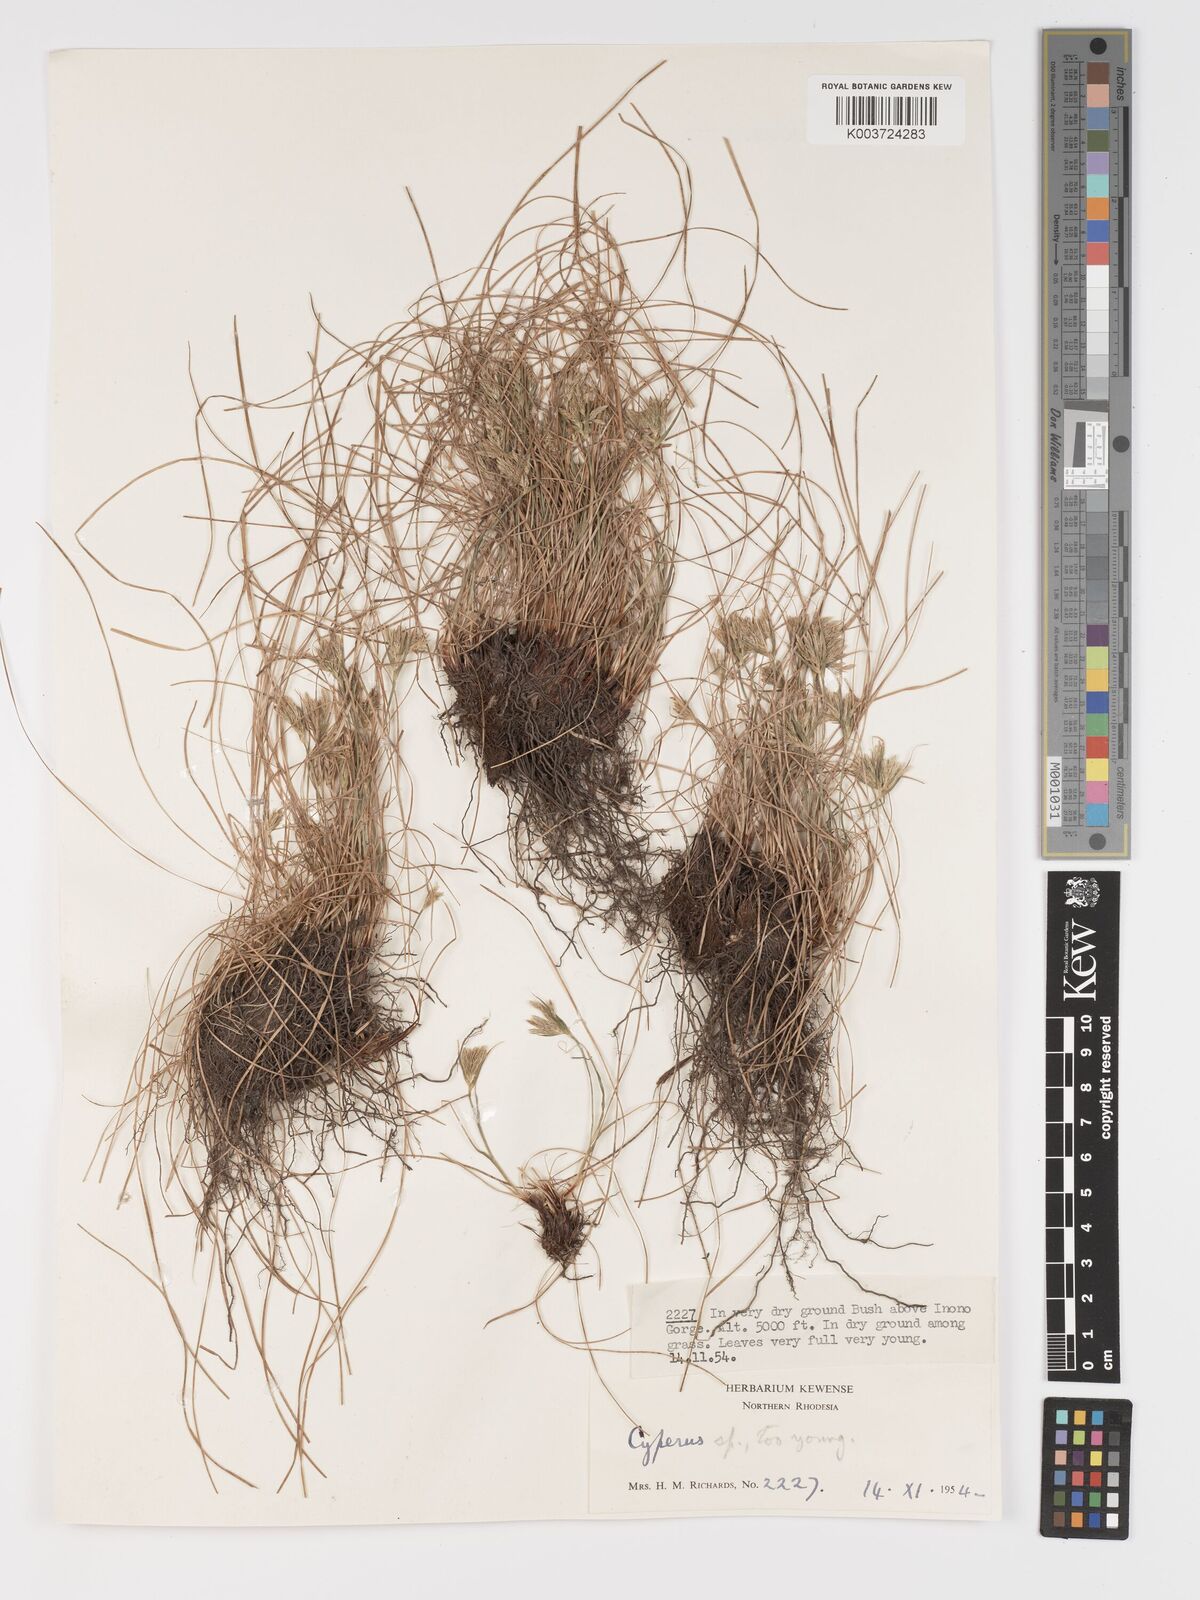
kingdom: Plantae
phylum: Tracheophyta
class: Liliopsida
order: Poales
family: Cyperaceae
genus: Cyperus
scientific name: Cyperus
